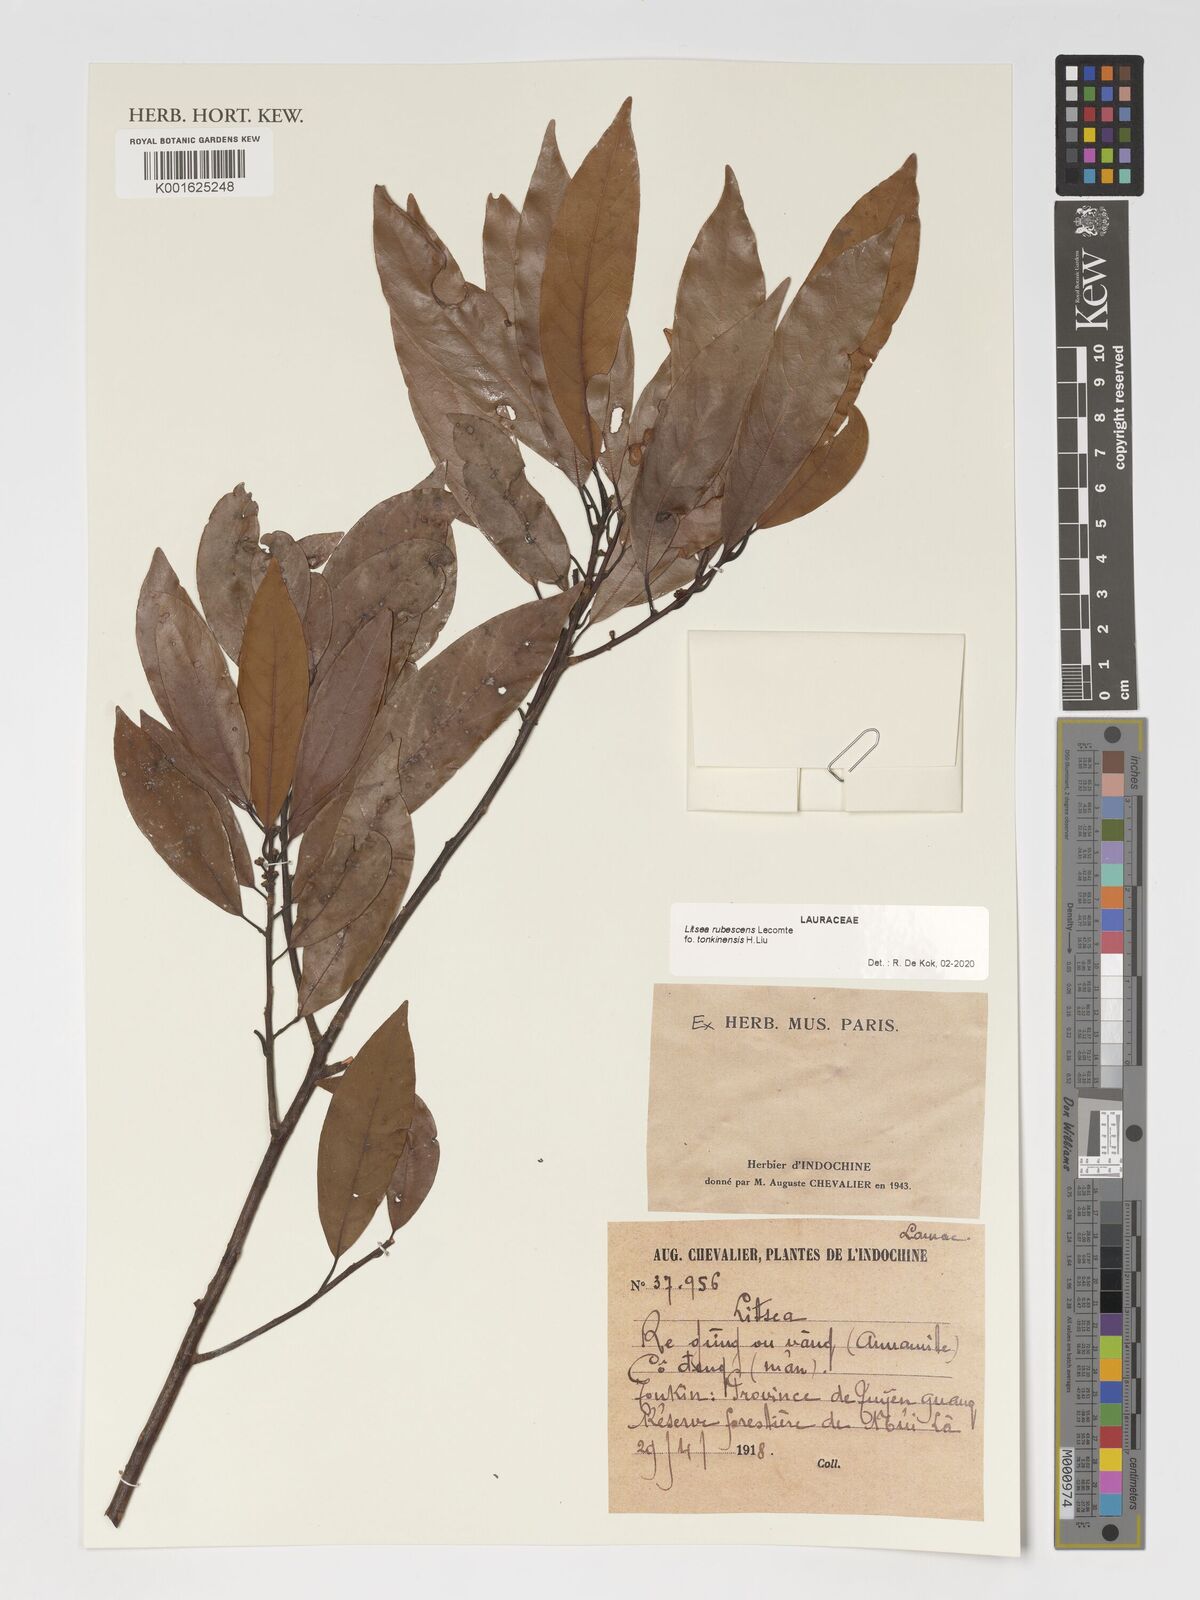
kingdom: Plantae
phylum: Tracheophyta
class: Magnoliopsida
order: Laurales
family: Lauraceae
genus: Litsea
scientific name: Litsea rubescens
